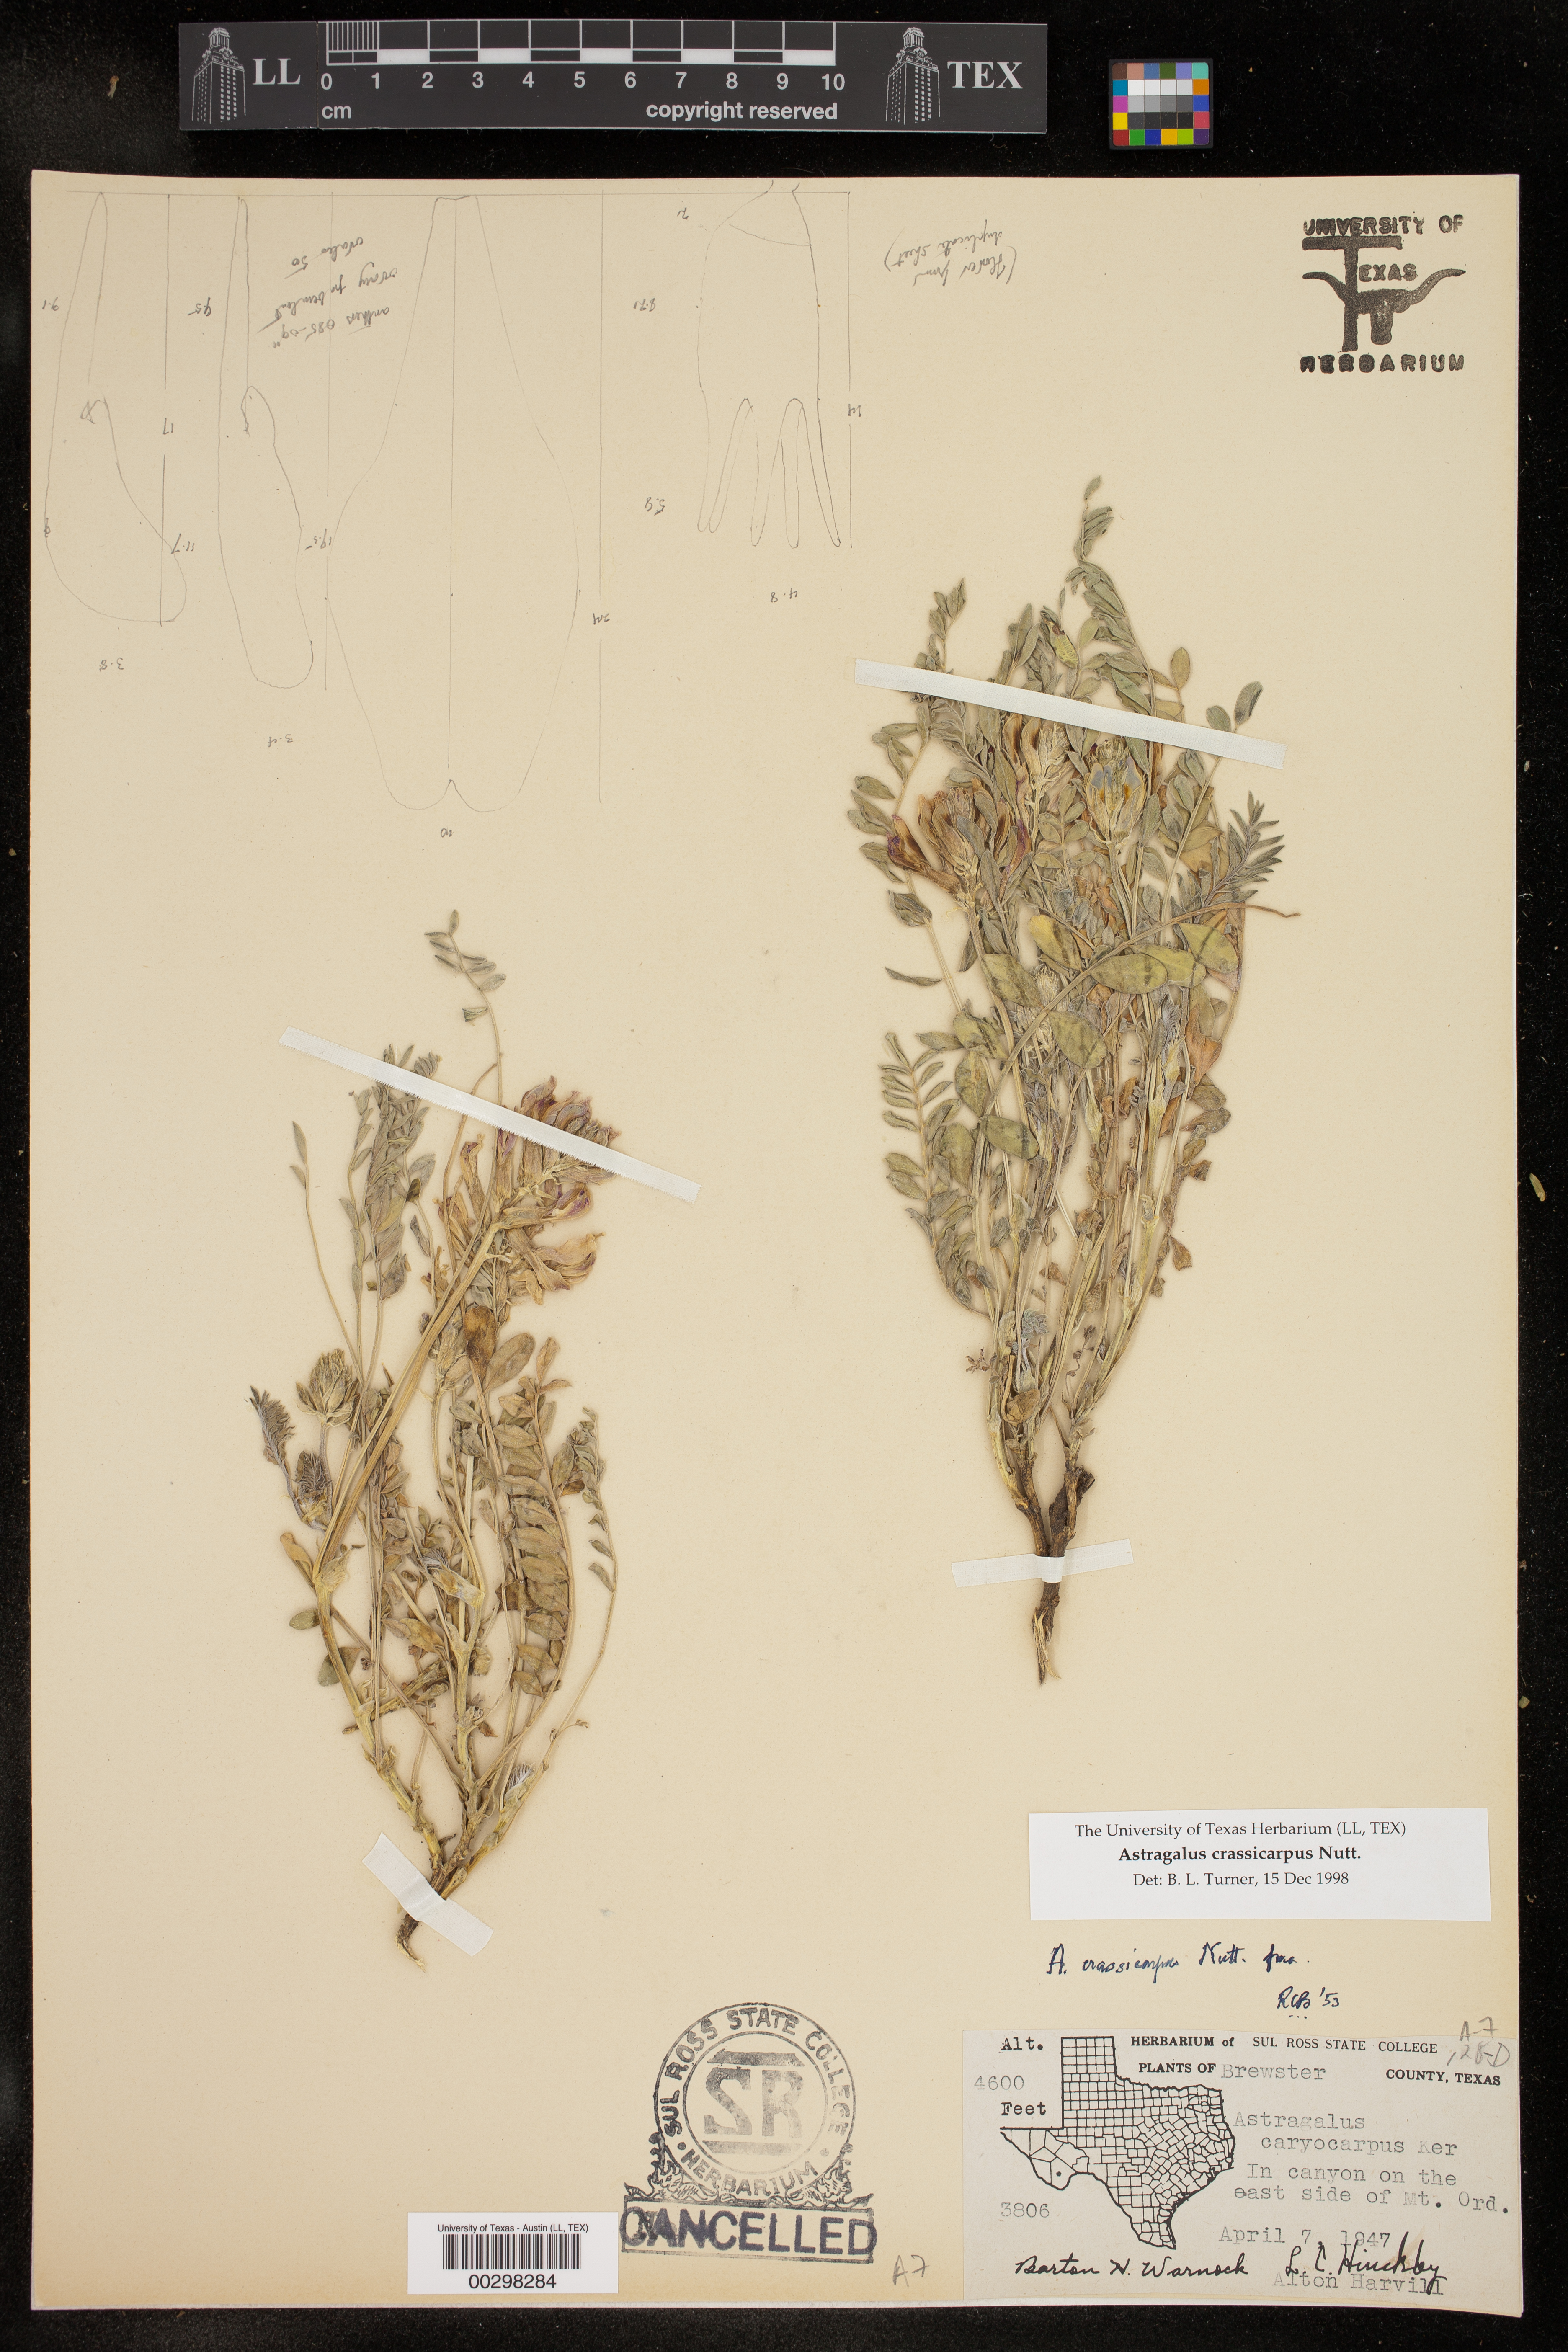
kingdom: Plantae
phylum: Tracheophyta
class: Magnoliopsida
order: Fabales
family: Fabaceae
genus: Astragalus
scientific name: Astragalus crassicarpus
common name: Ground-plum milk-vetch
